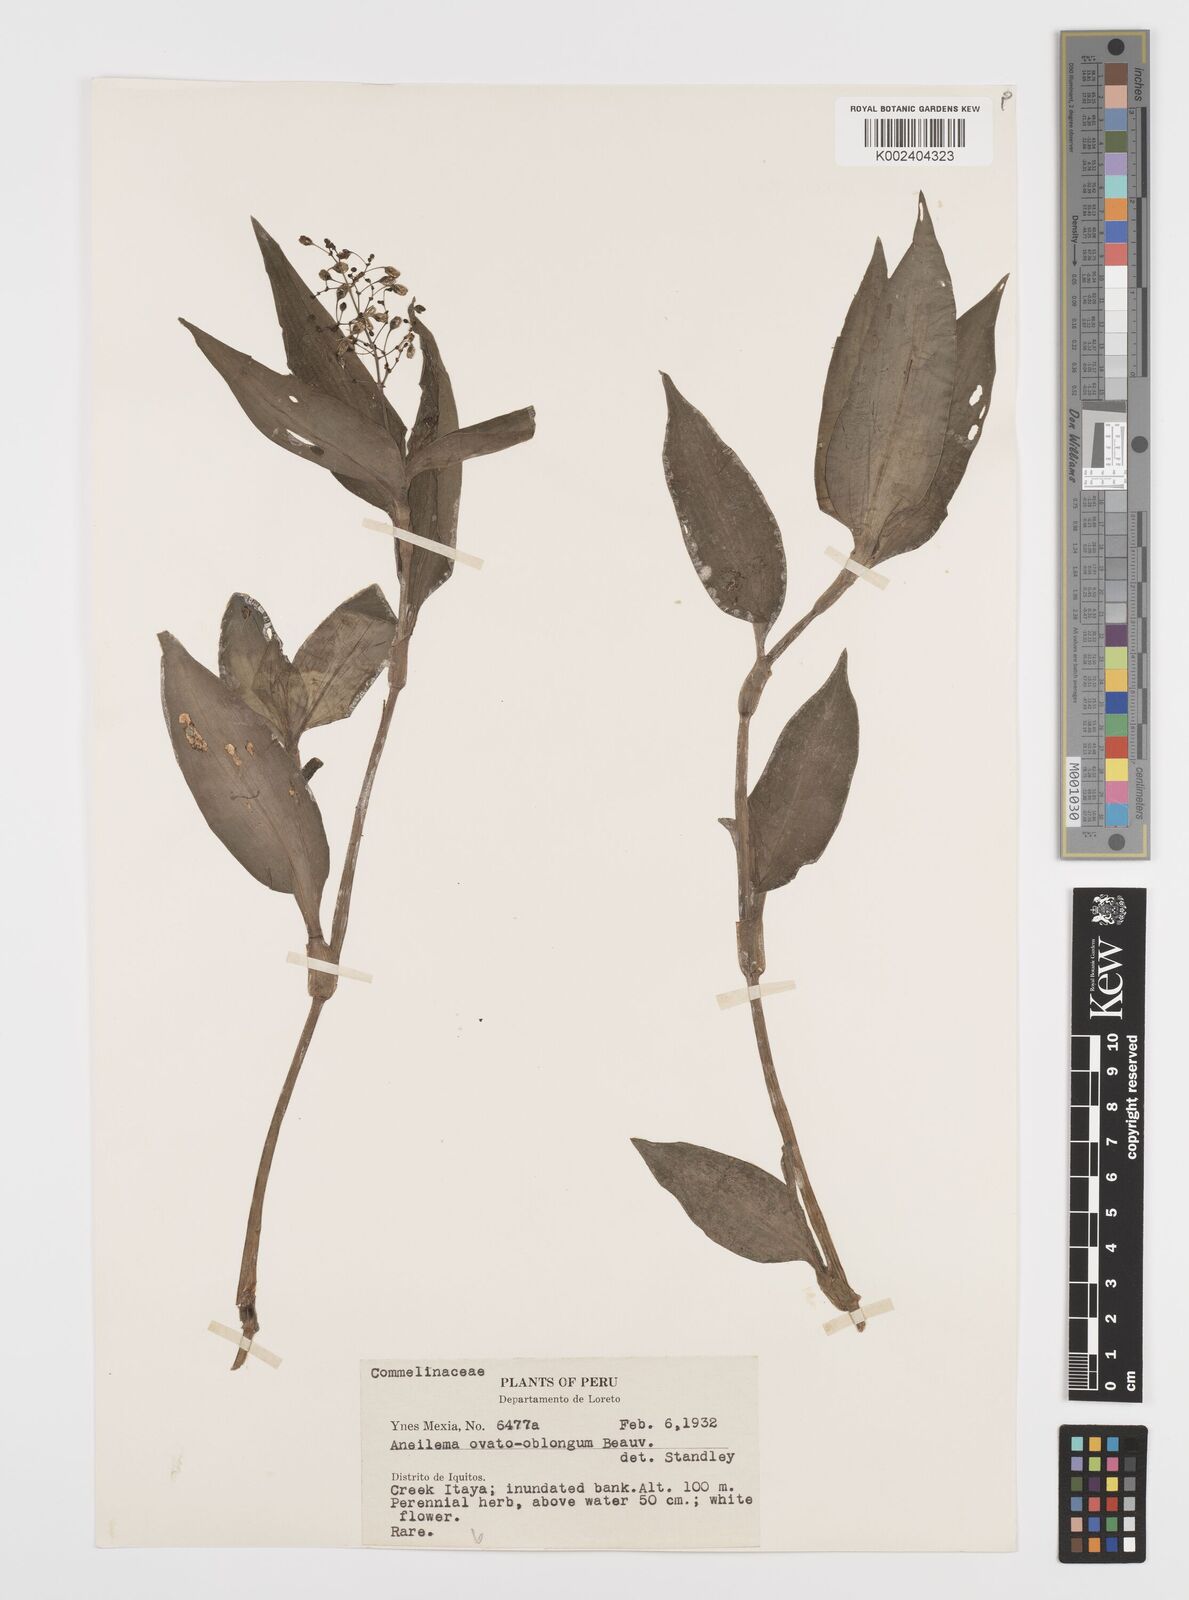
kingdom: Plantae
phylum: Tracheophyta
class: Liliopsida
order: Commelinales
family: Commelinaceae
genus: Aneilema
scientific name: Aneilema umbrosum
